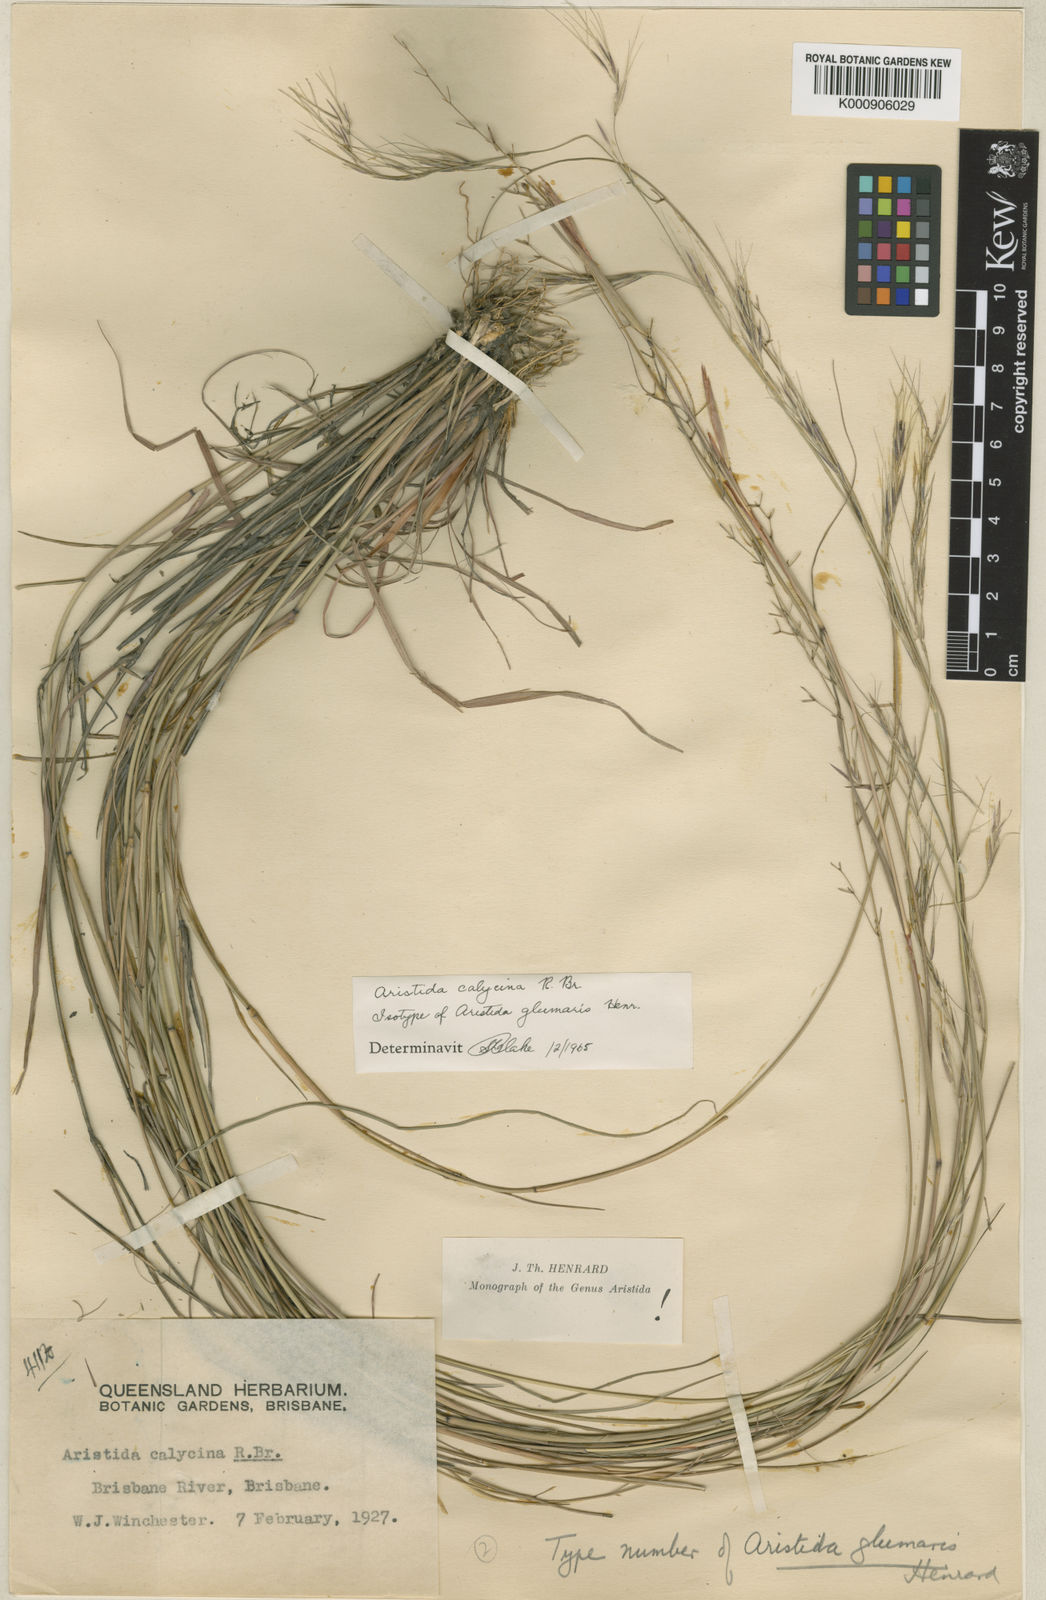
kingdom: Plantae
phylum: Tracheophyta
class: Liliopsida
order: Poales
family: Poaceae
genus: Aristida
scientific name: Aristida calycina
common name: Dark wire grass
